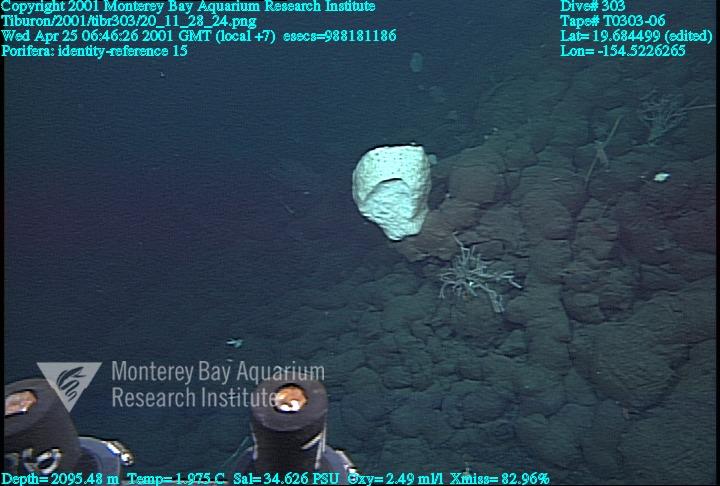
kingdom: Animalia
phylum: Porifera
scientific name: Porifera
